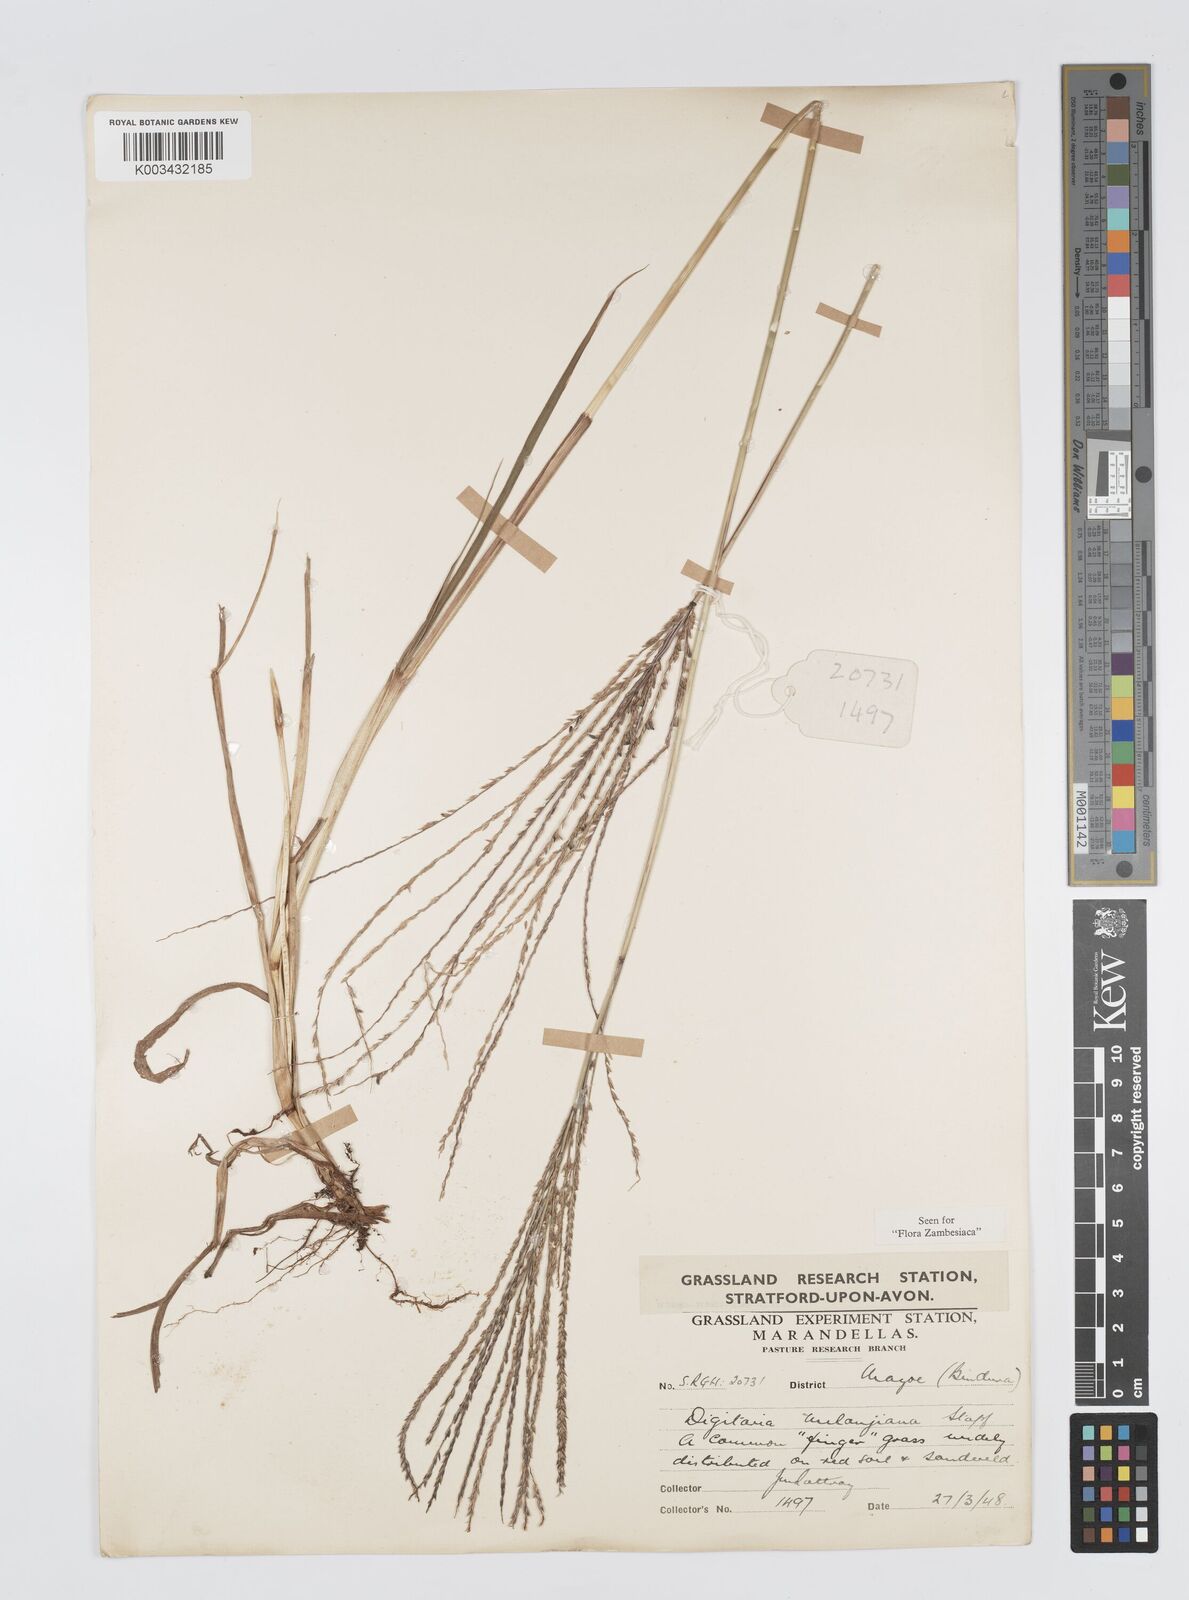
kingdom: Plantae
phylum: Tracheophyta
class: Liliopsida
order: Poales
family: Poaceae
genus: Digitaria
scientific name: Digitaria milanjiana
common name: Madagascar crabgrass
